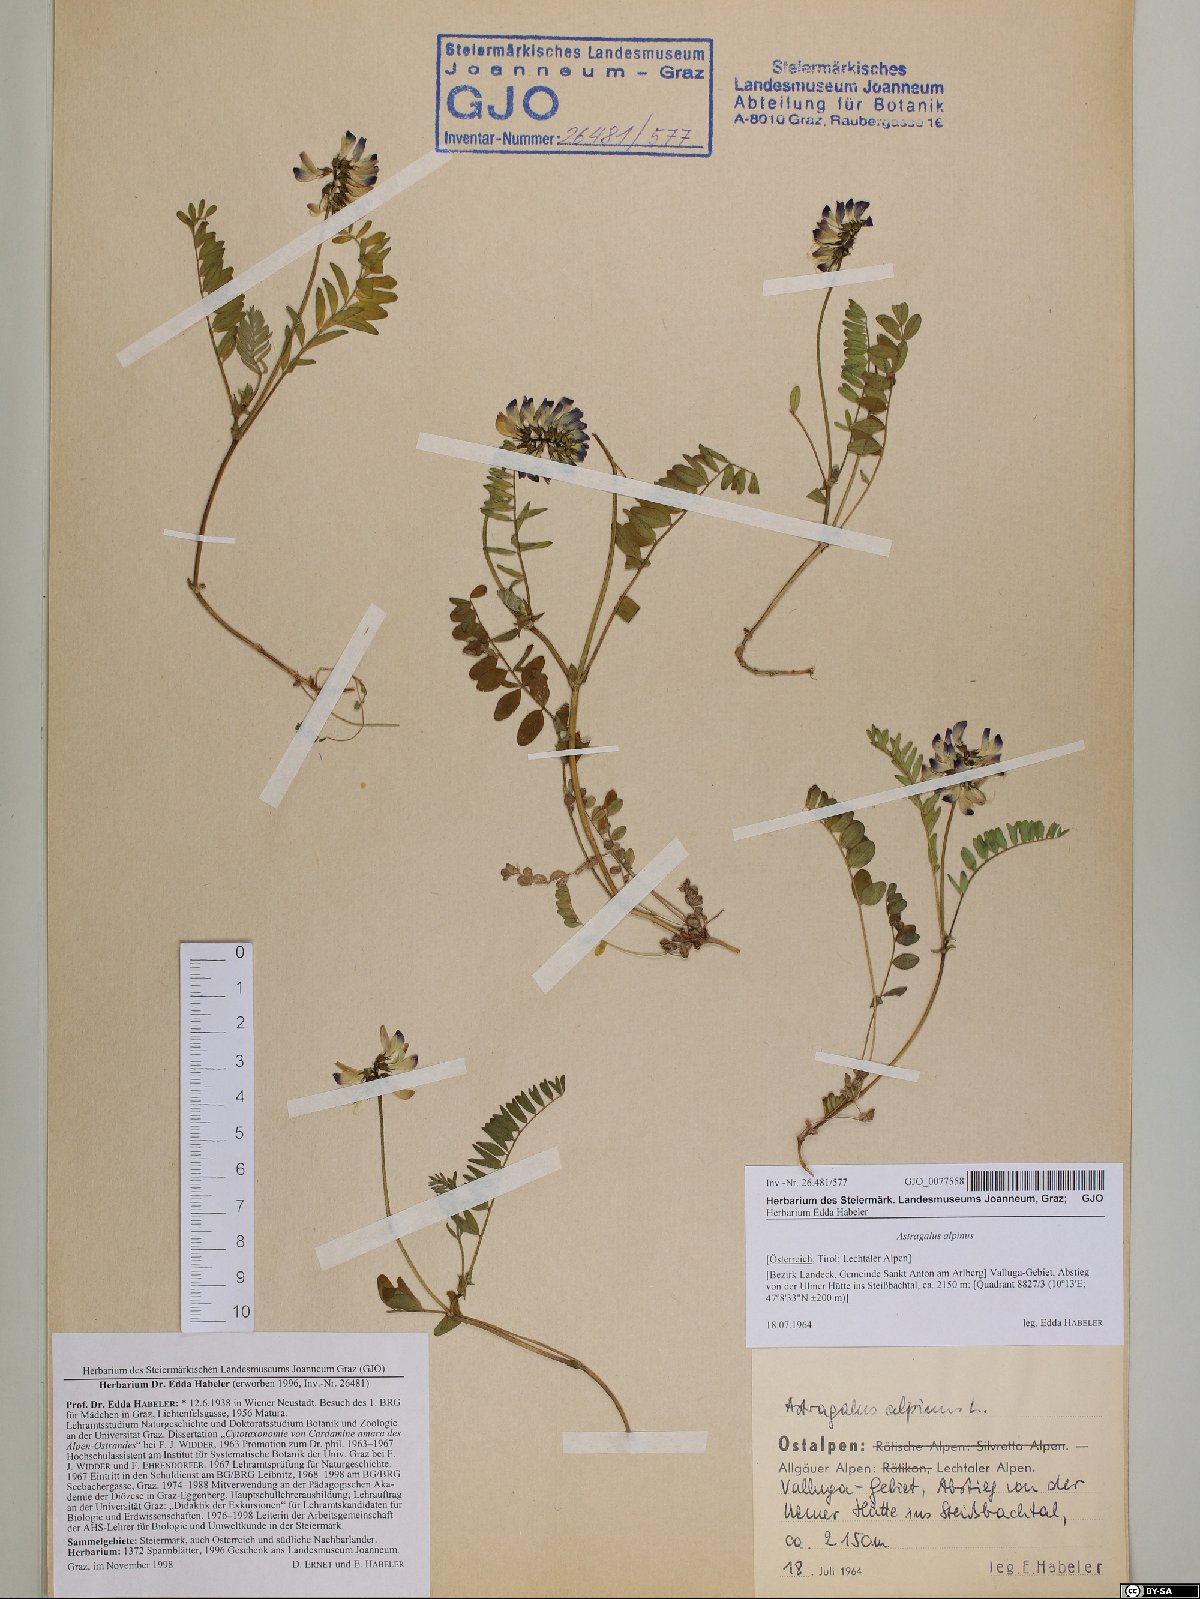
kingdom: Plantae
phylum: Tracheophyta
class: Magnoliopsida
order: Fabales
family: Fabaceae
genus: Astragalus
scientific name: Astragalus alpinus
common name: Alpine milk-vetch
